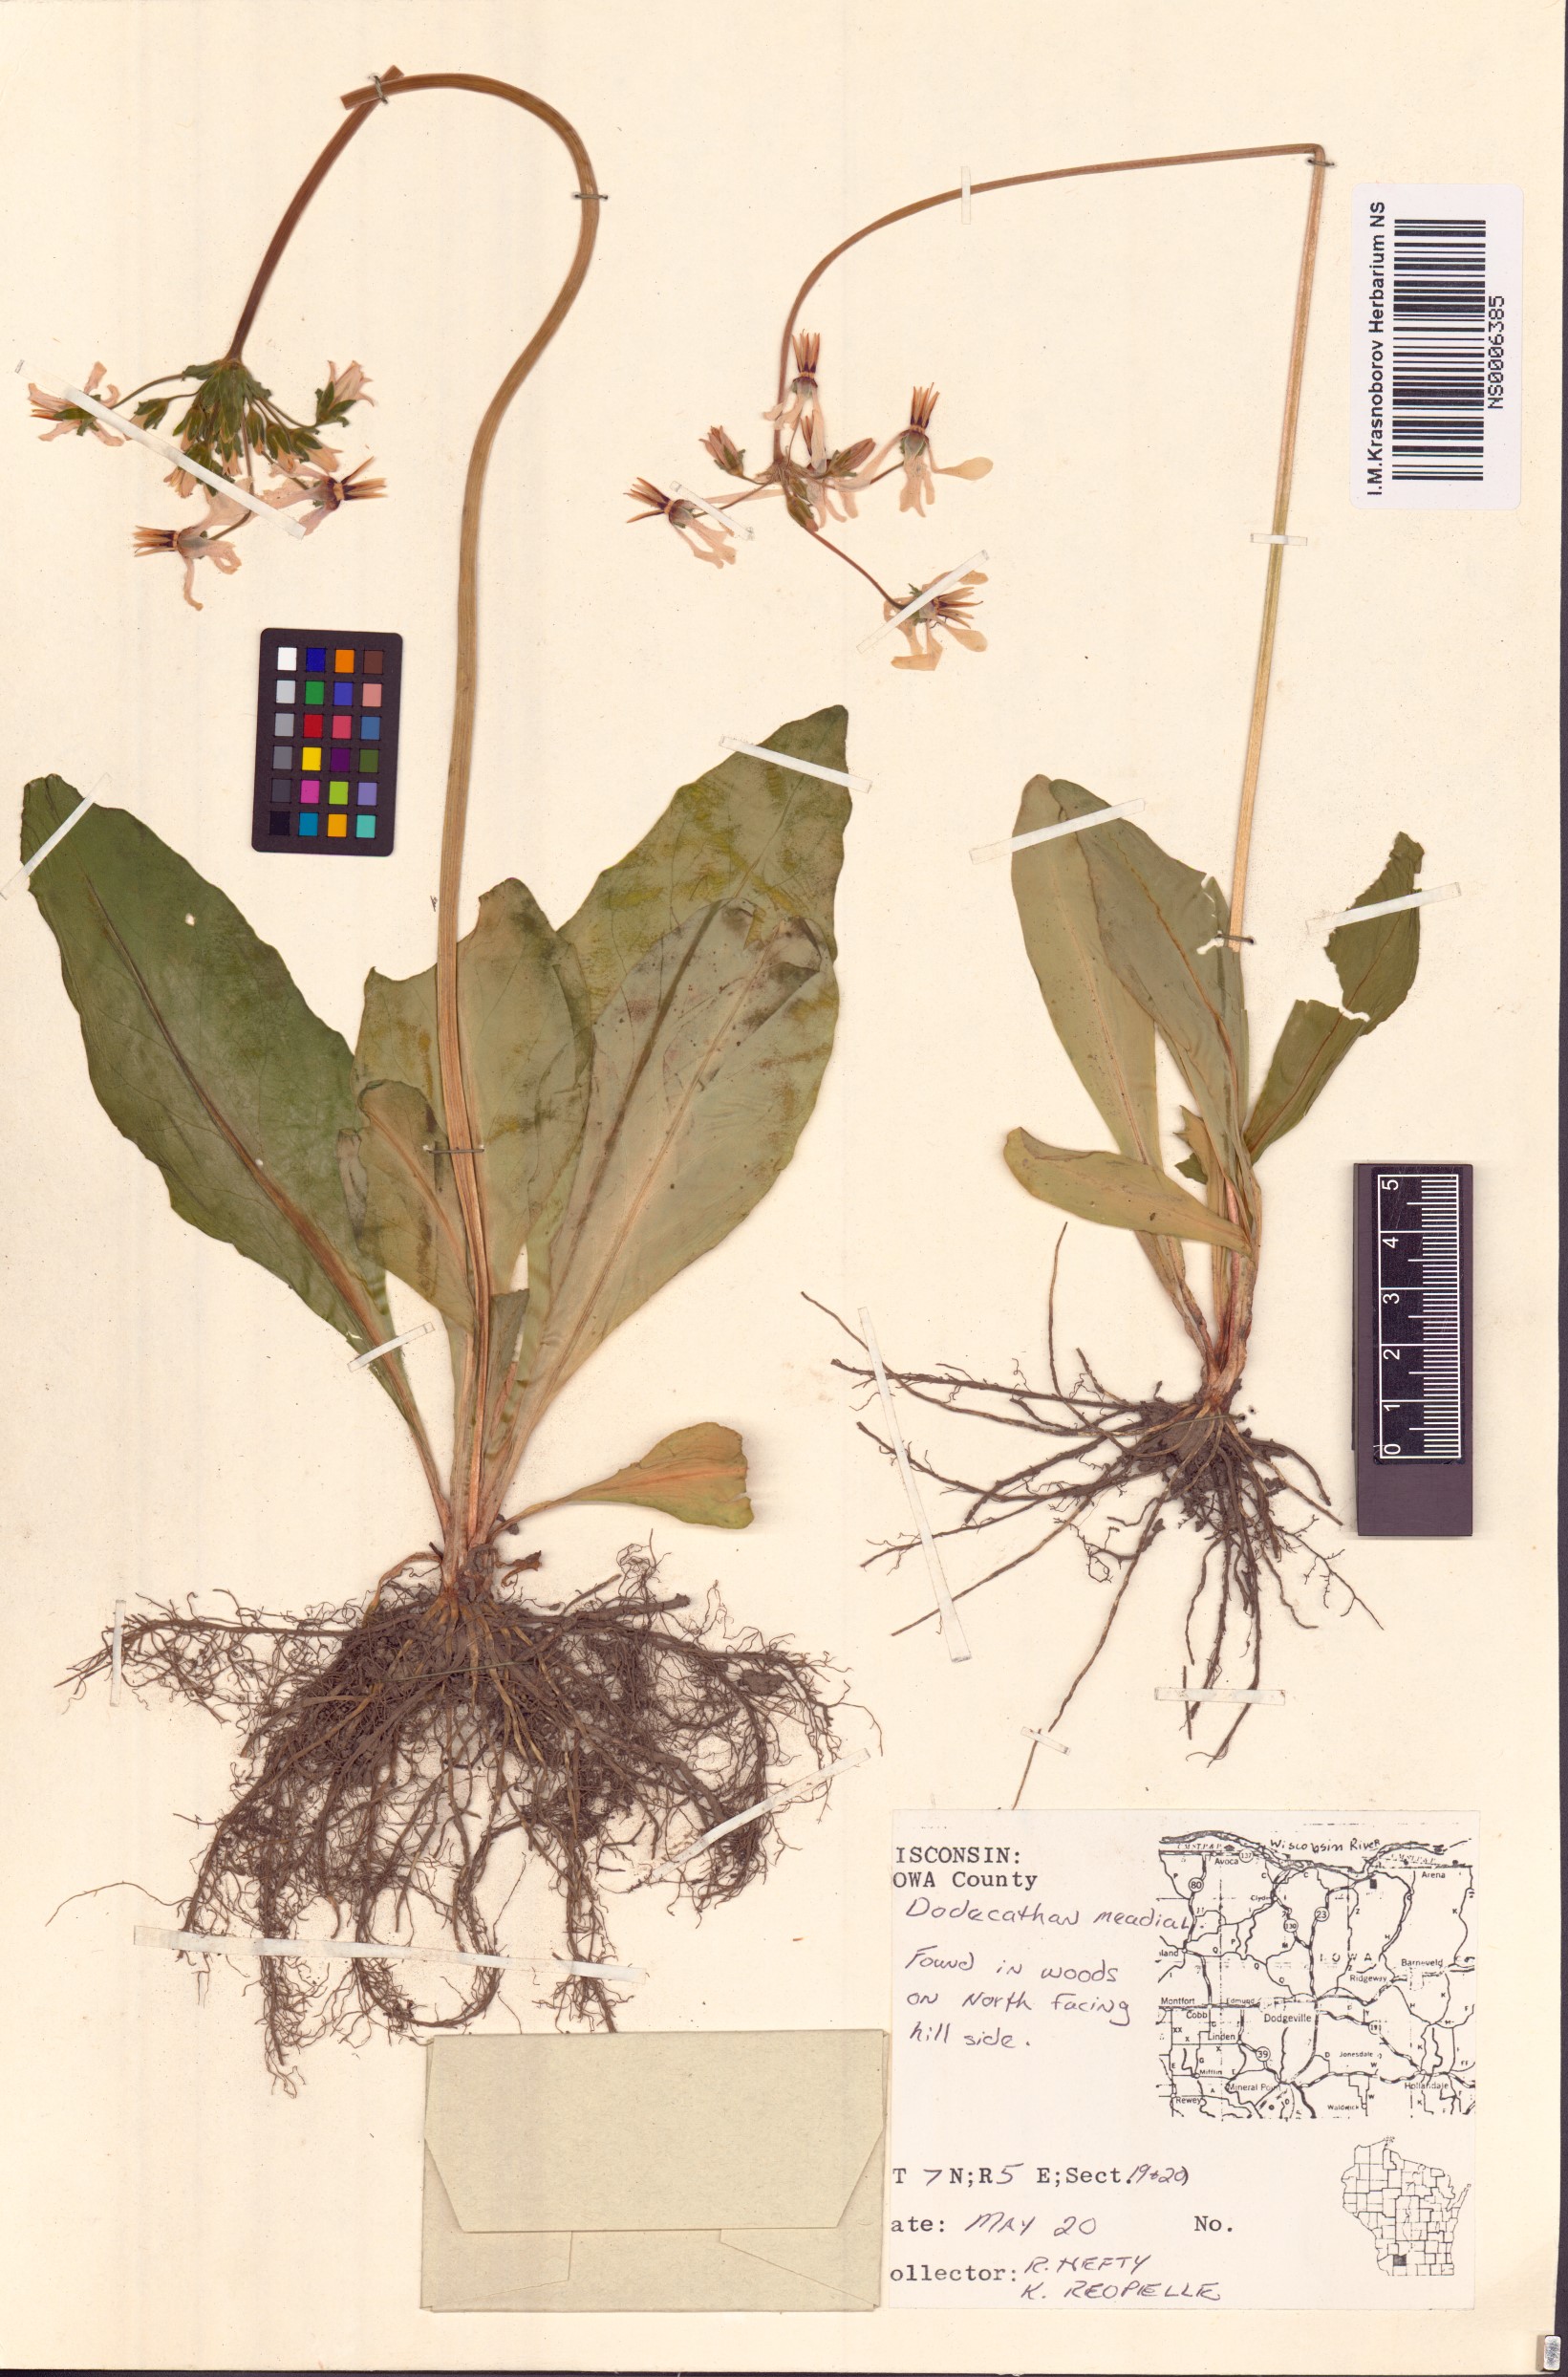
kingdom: Plantae
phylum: Tracheophyta
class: Magnoliopsida
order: Ericales
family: Primulaceae
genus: Dodecatheon
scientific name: Dodecatheon meadia
